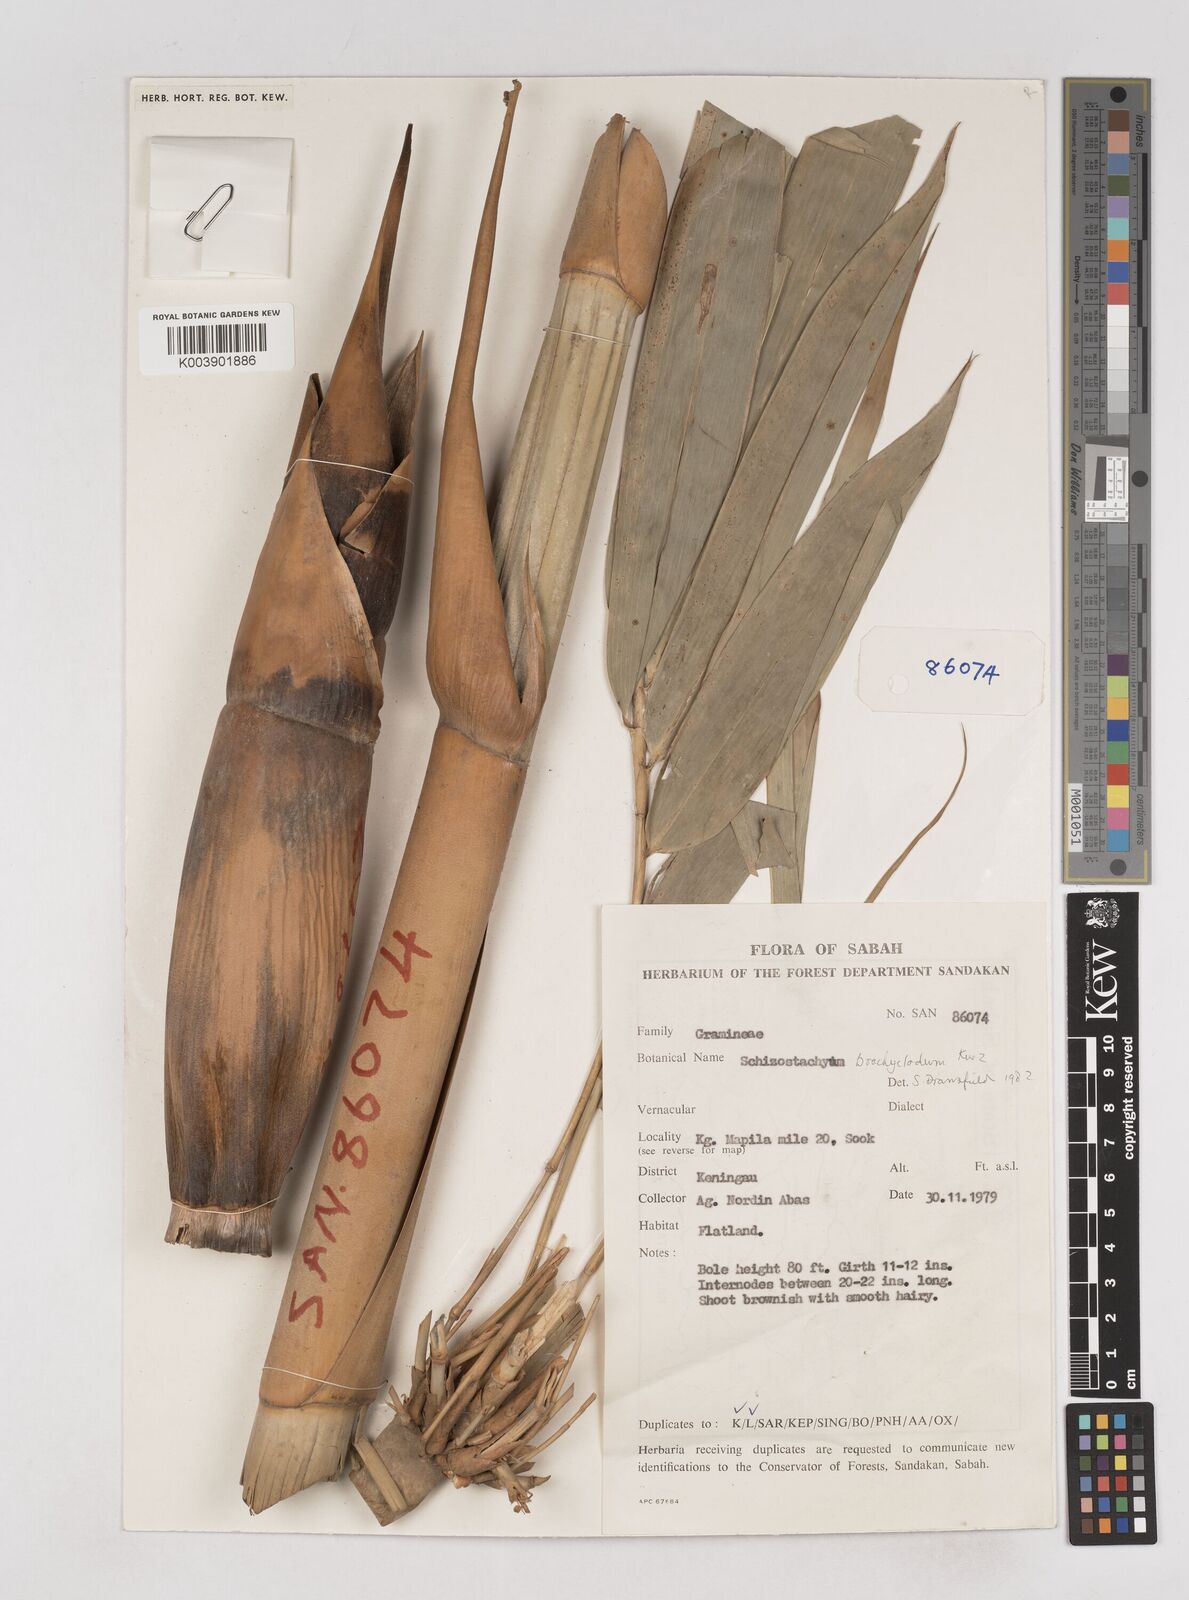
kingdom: Plantae
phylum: Tracheophyta
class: Liliopsida
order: Poales
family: Poaceae
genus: Schizostachyum
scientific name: Schizostachyum brachycladum
